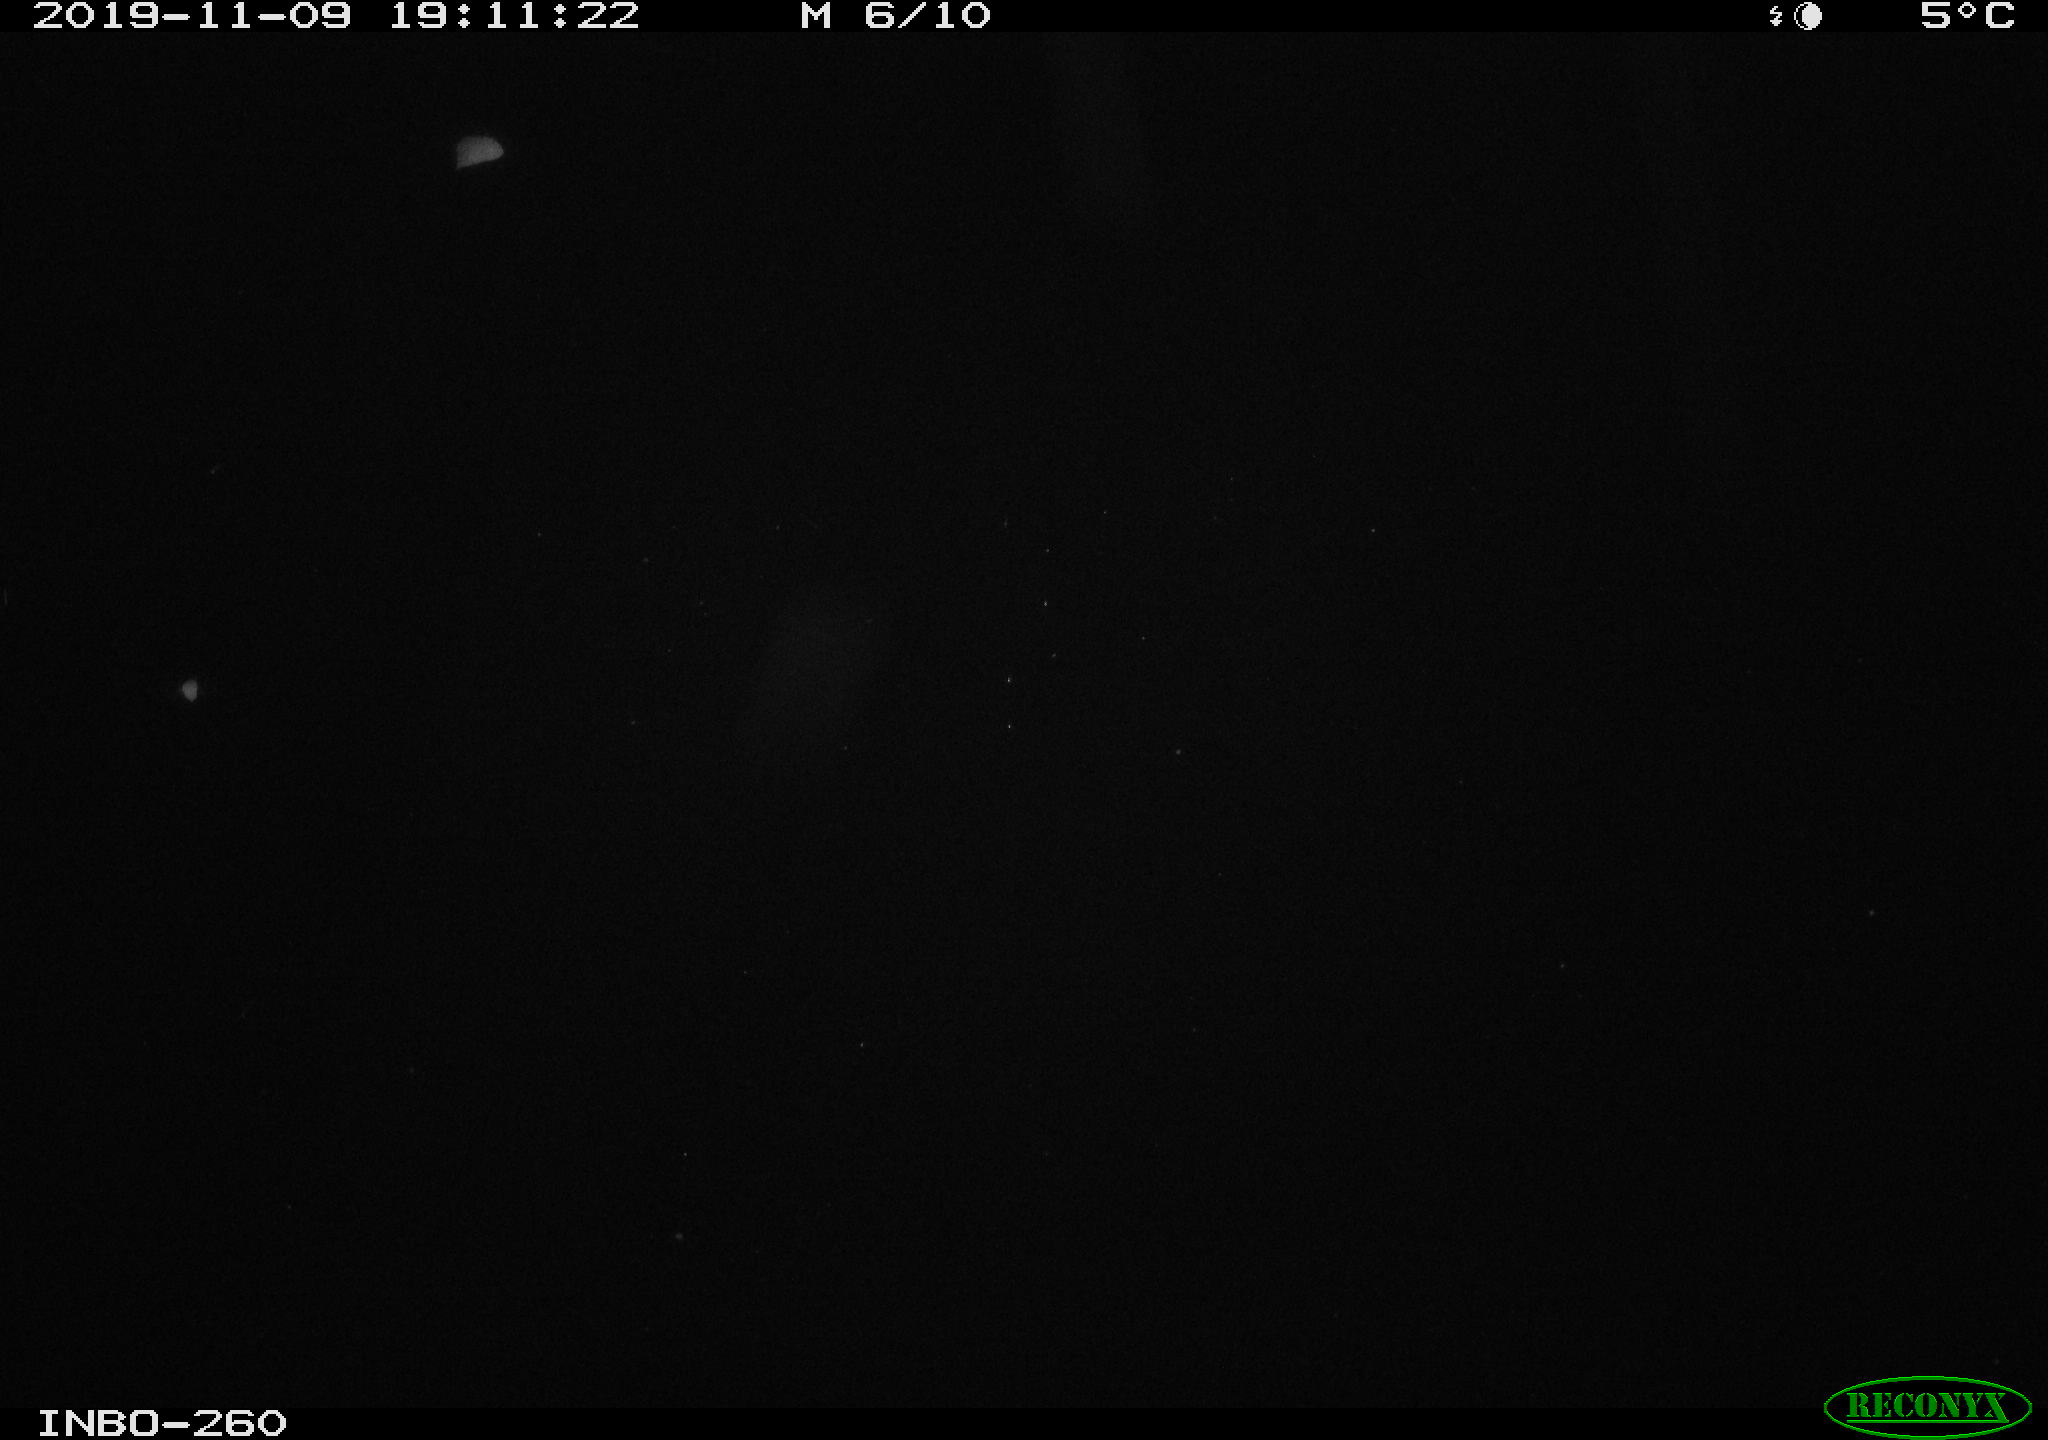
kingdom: Animalia
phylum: Chordata
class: Aves
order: Anseriformes
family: Anatidae
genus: Anas
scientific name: Anas platyrhynchos
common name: Mallard
